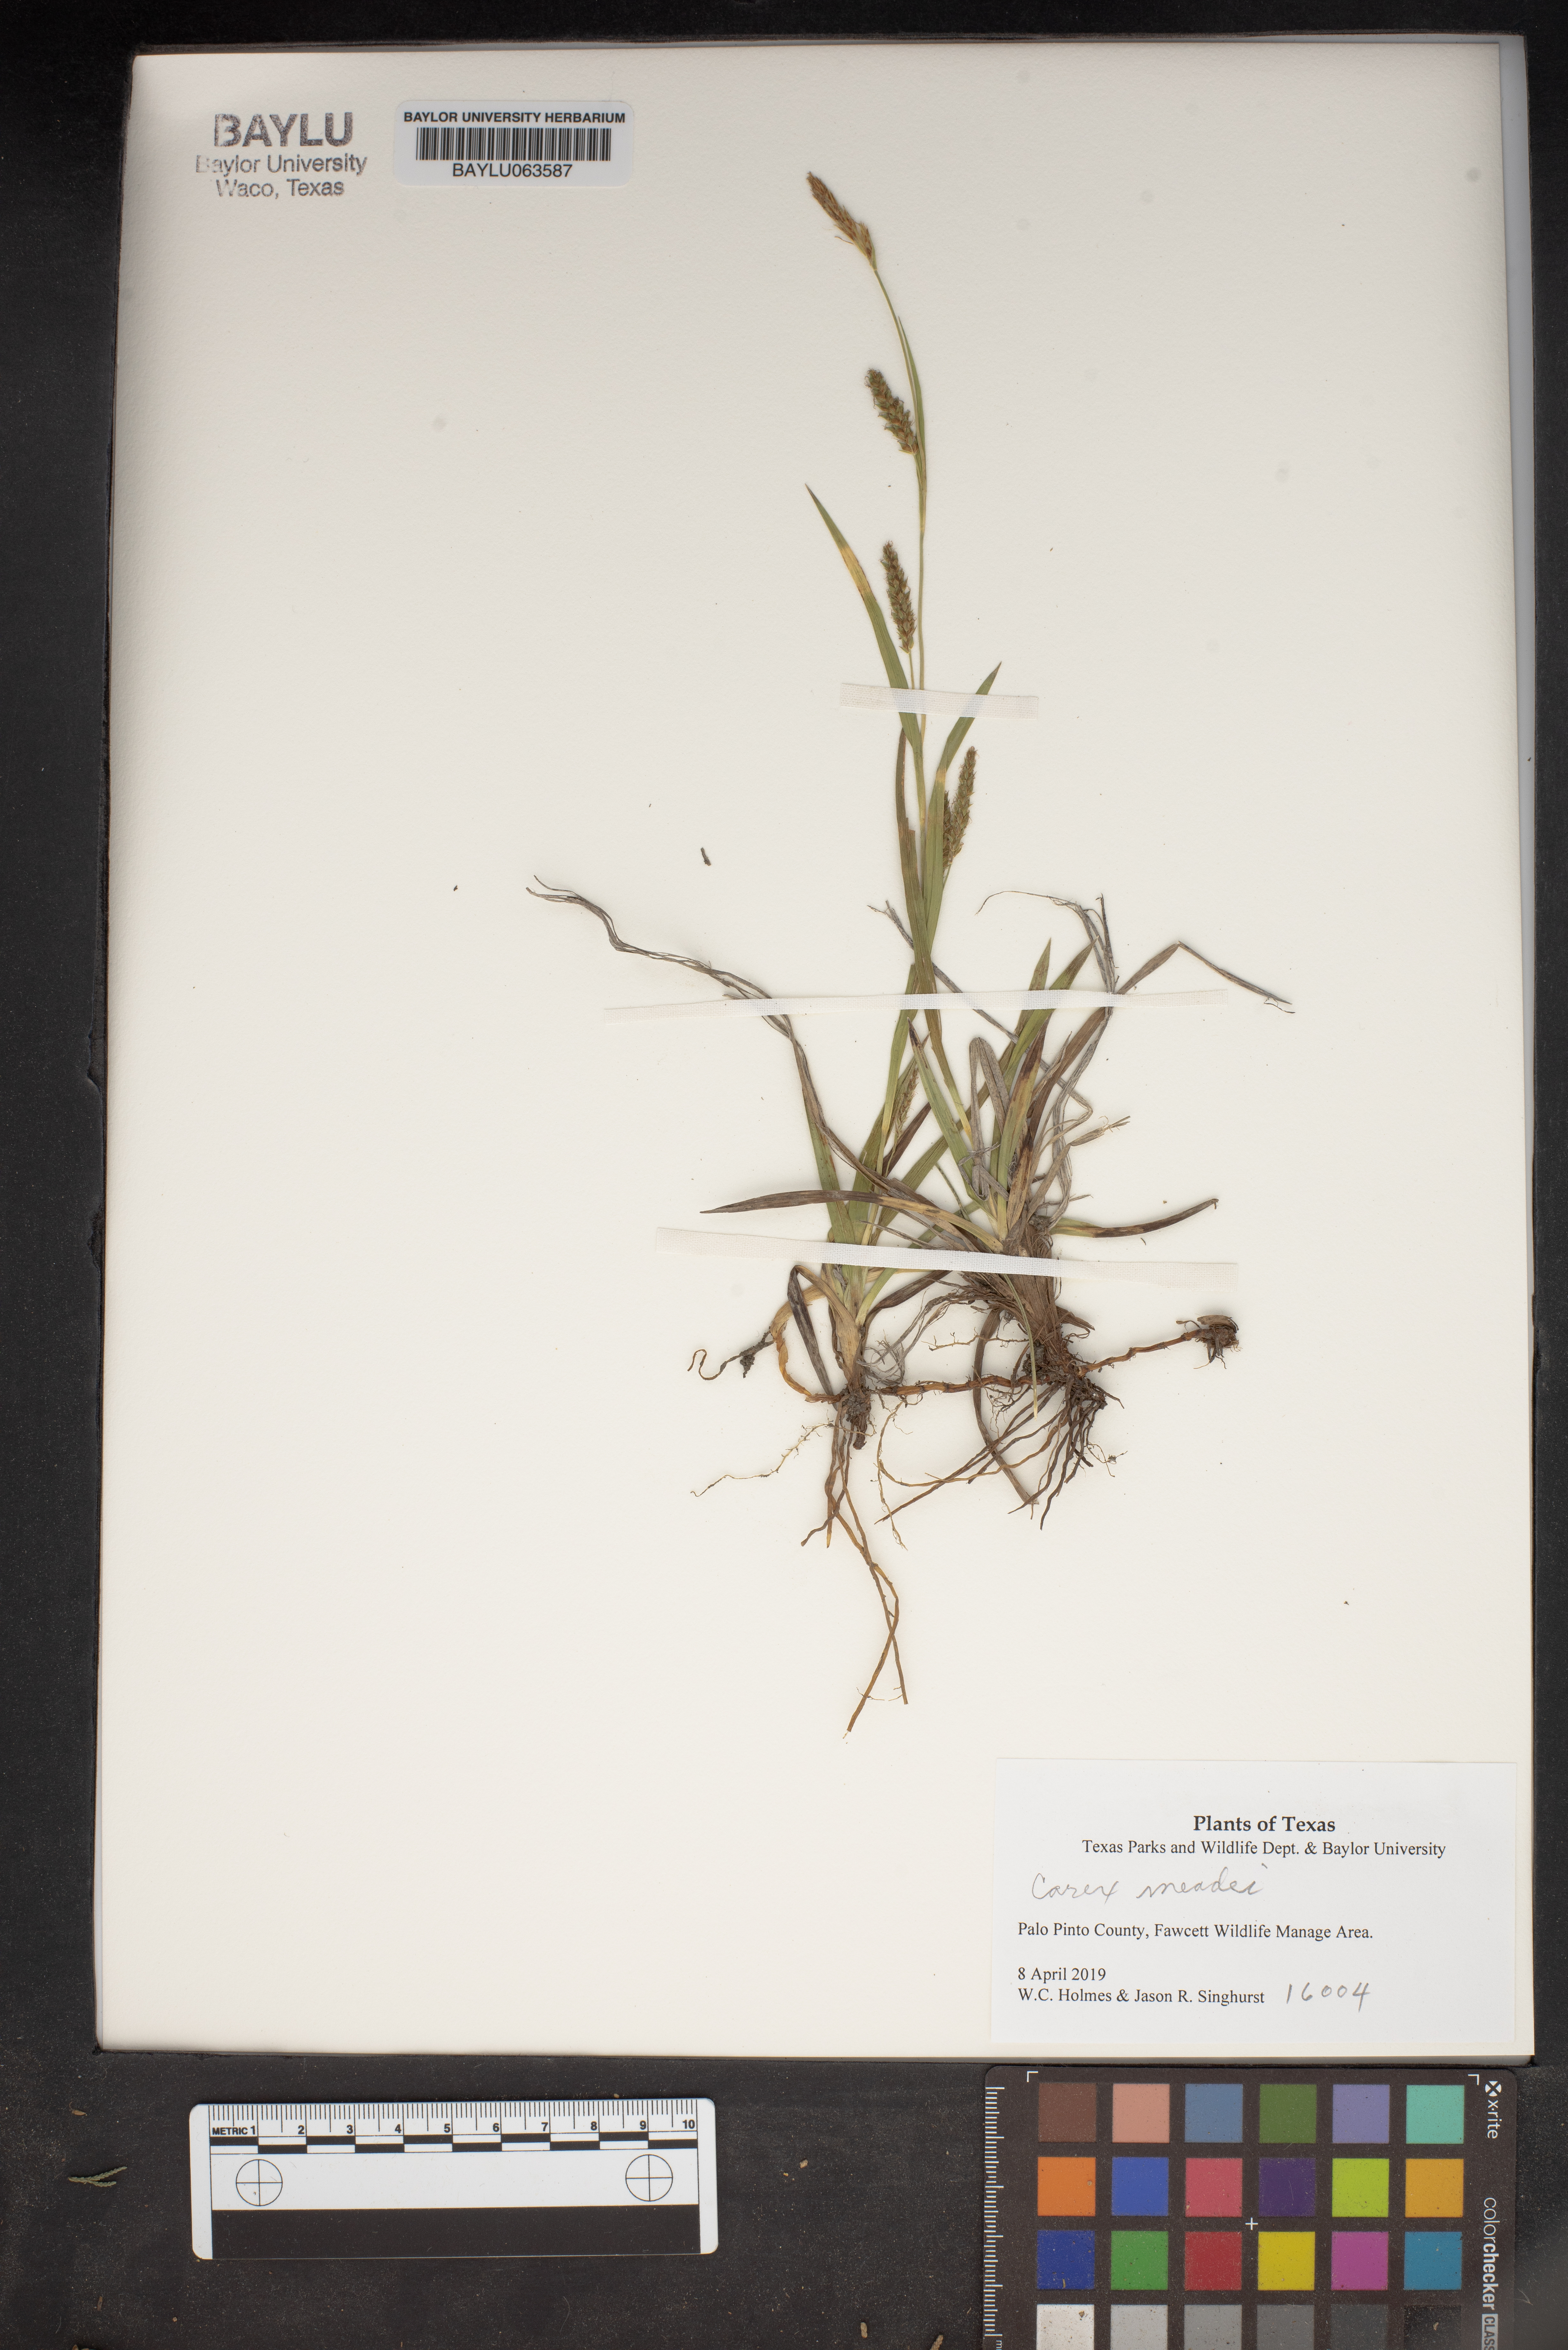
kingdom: Plantae
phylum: Tracheophyta
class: Liliopsida
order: Poales
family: Cyperaceae
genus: Carex
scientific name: Carex meadii
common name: Mead's sedge
